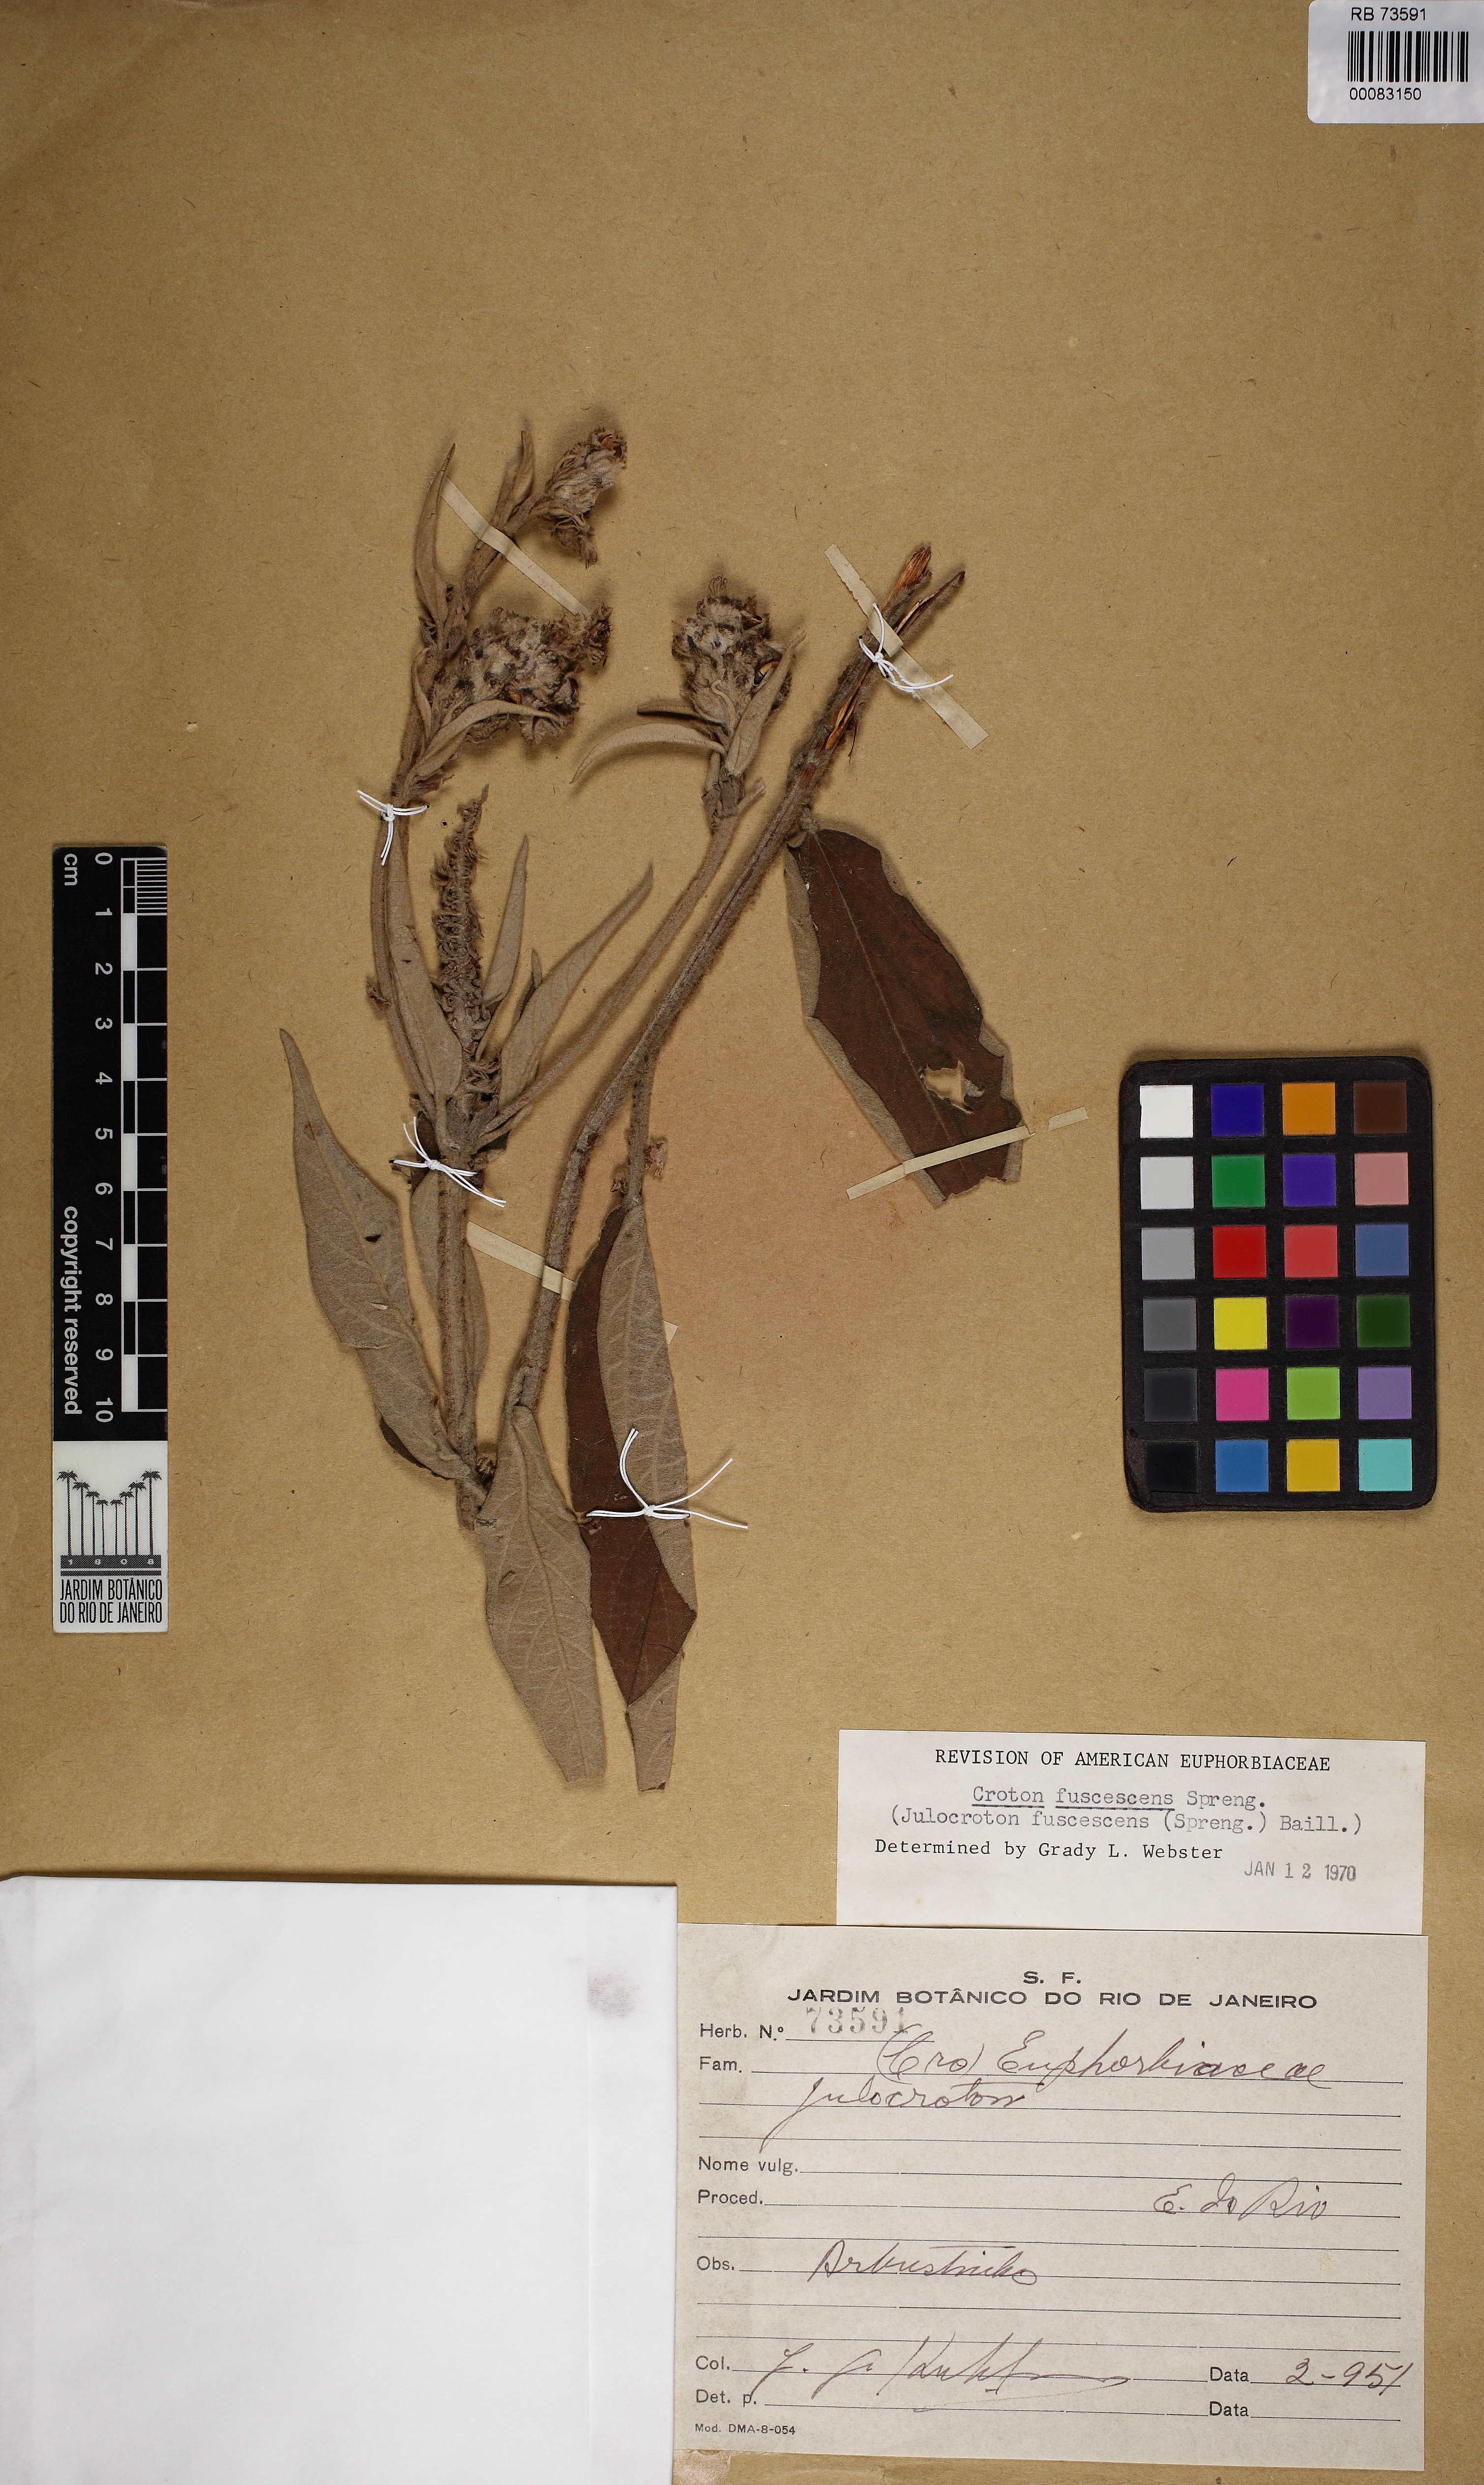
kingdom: Plantae
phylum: Tracheophyta
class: Magnoliopsida
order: Malpighiales
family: Euphorbiaceae
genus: Croton
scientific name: Croton gnaphaloides
